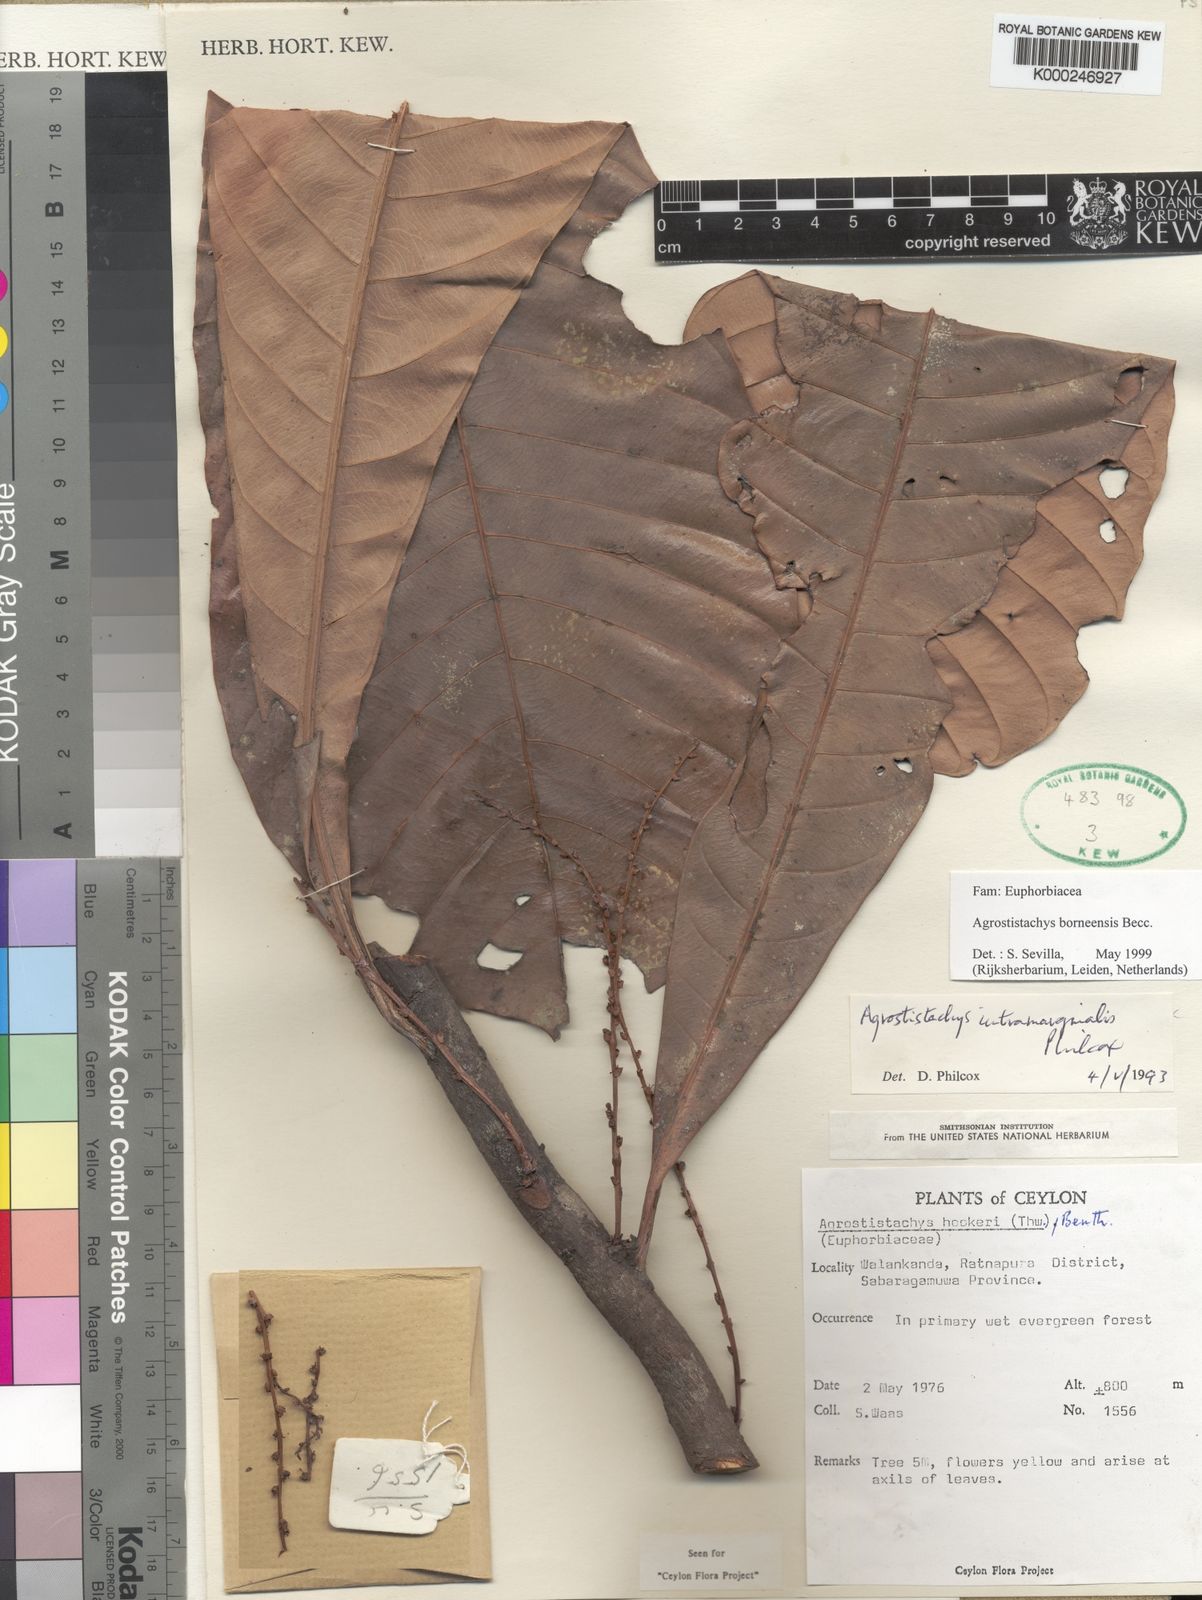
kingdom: Plantae
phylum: Tracheophyta
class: Magnoliopsida
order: Malpighiales
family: Euphorbiaceae
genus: Agrostistachys
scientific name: Agrostistachys borneensis
